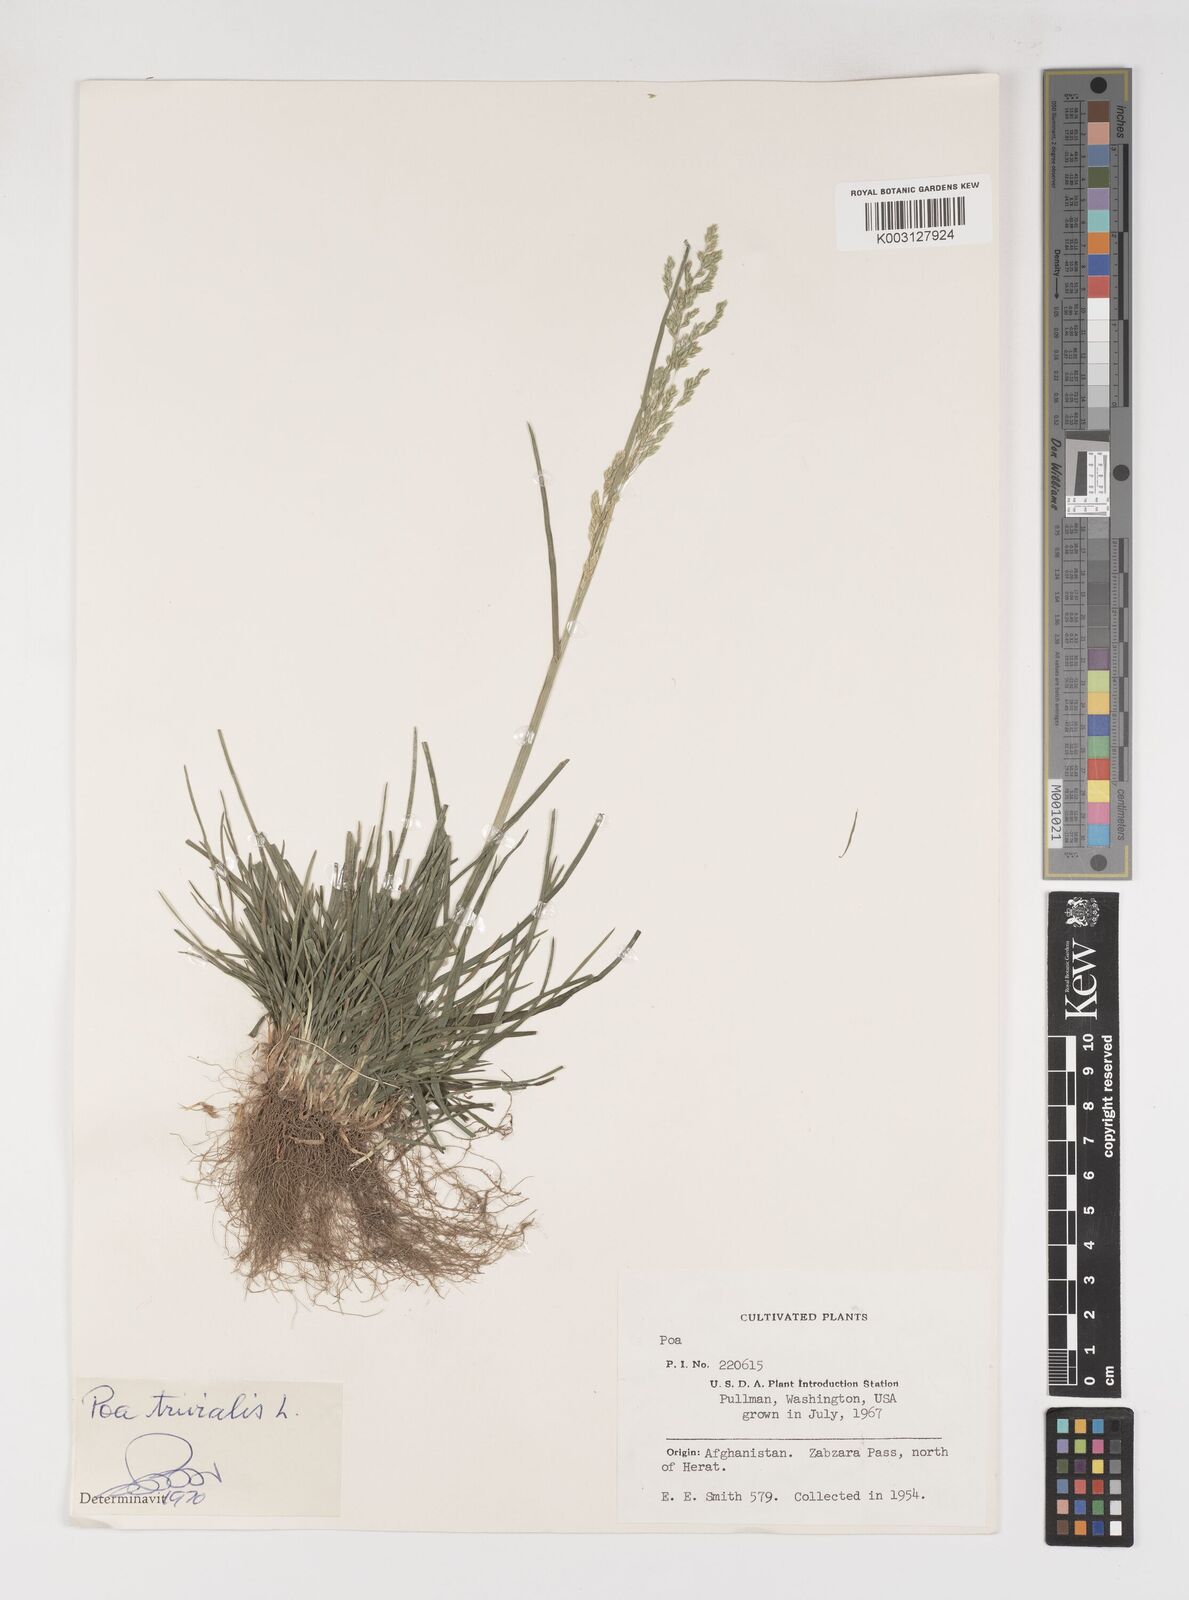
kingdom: Plantae
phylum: Tracheophyta
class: Liliopsida
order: Poales
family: Poaceae
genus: Poa
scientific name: Poa trivialis
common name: Rough bluegrass
